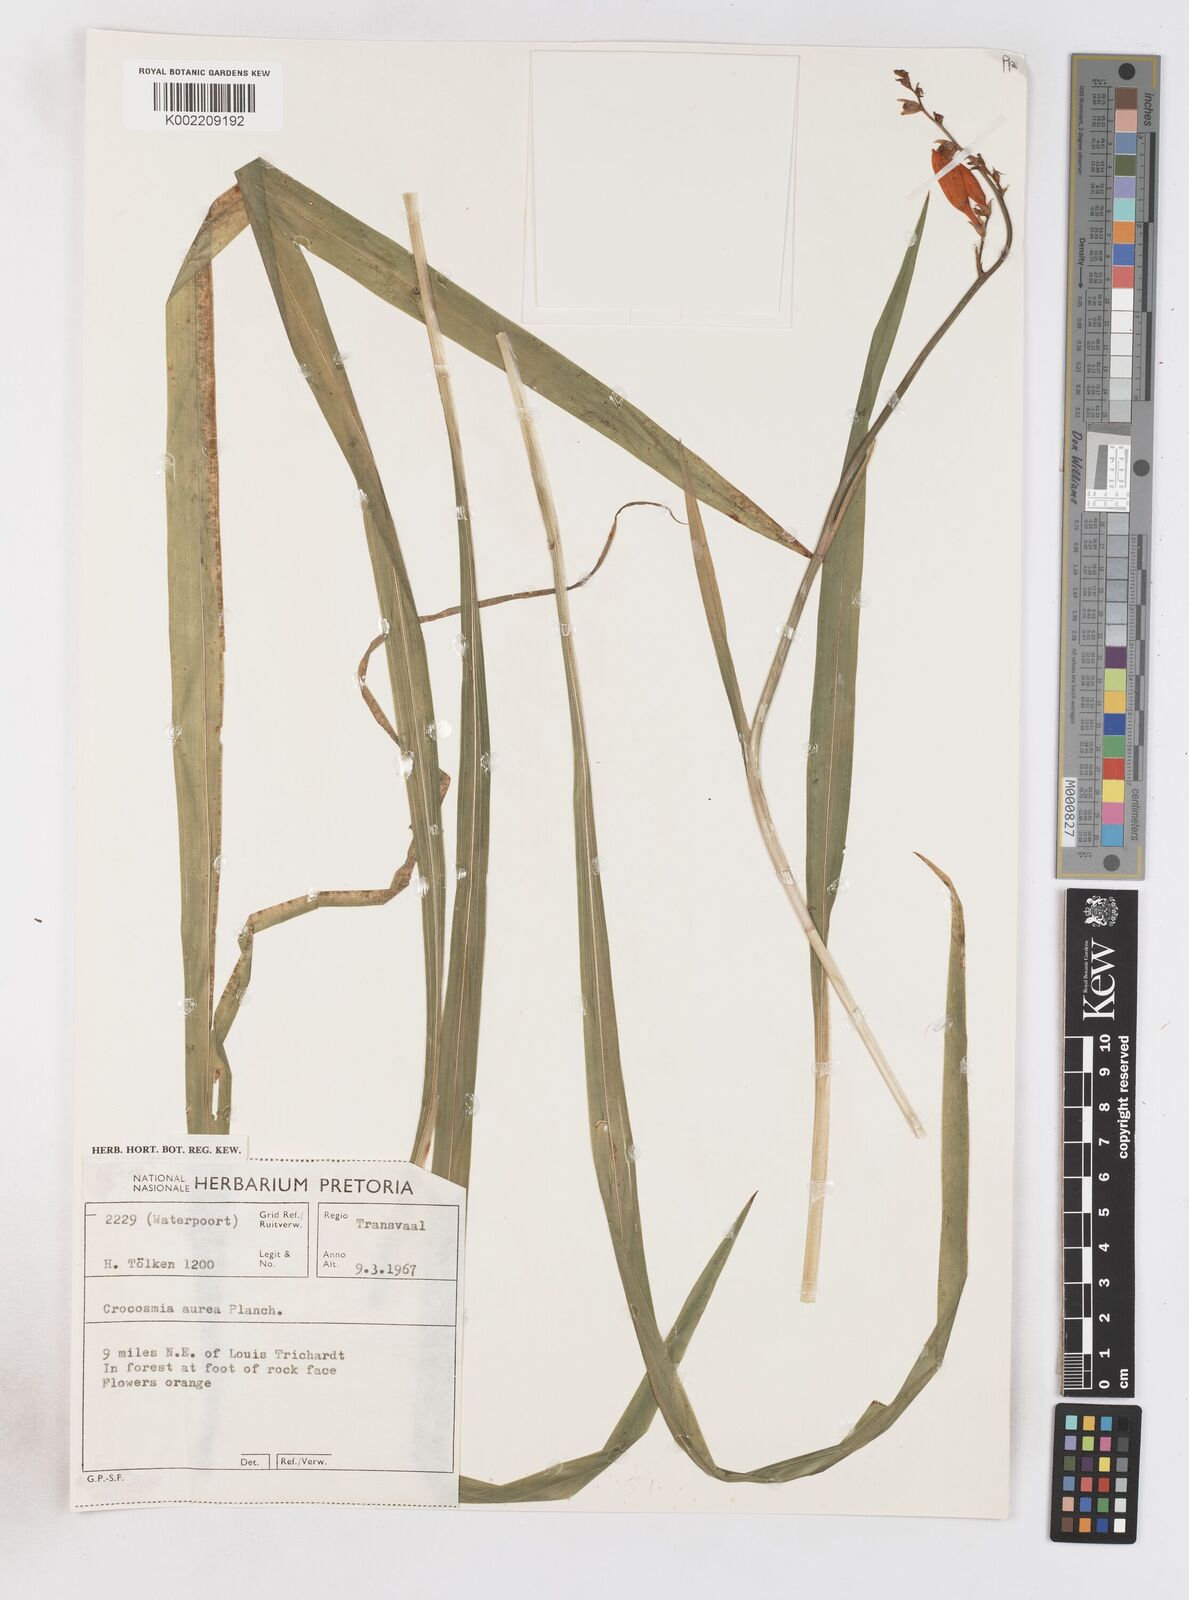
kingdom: Plantae
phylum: Tracheophyta
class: Liliopsida
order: Asparagales
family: Iridaceae
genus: Crocosmia
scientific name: Crocosmia aurea
